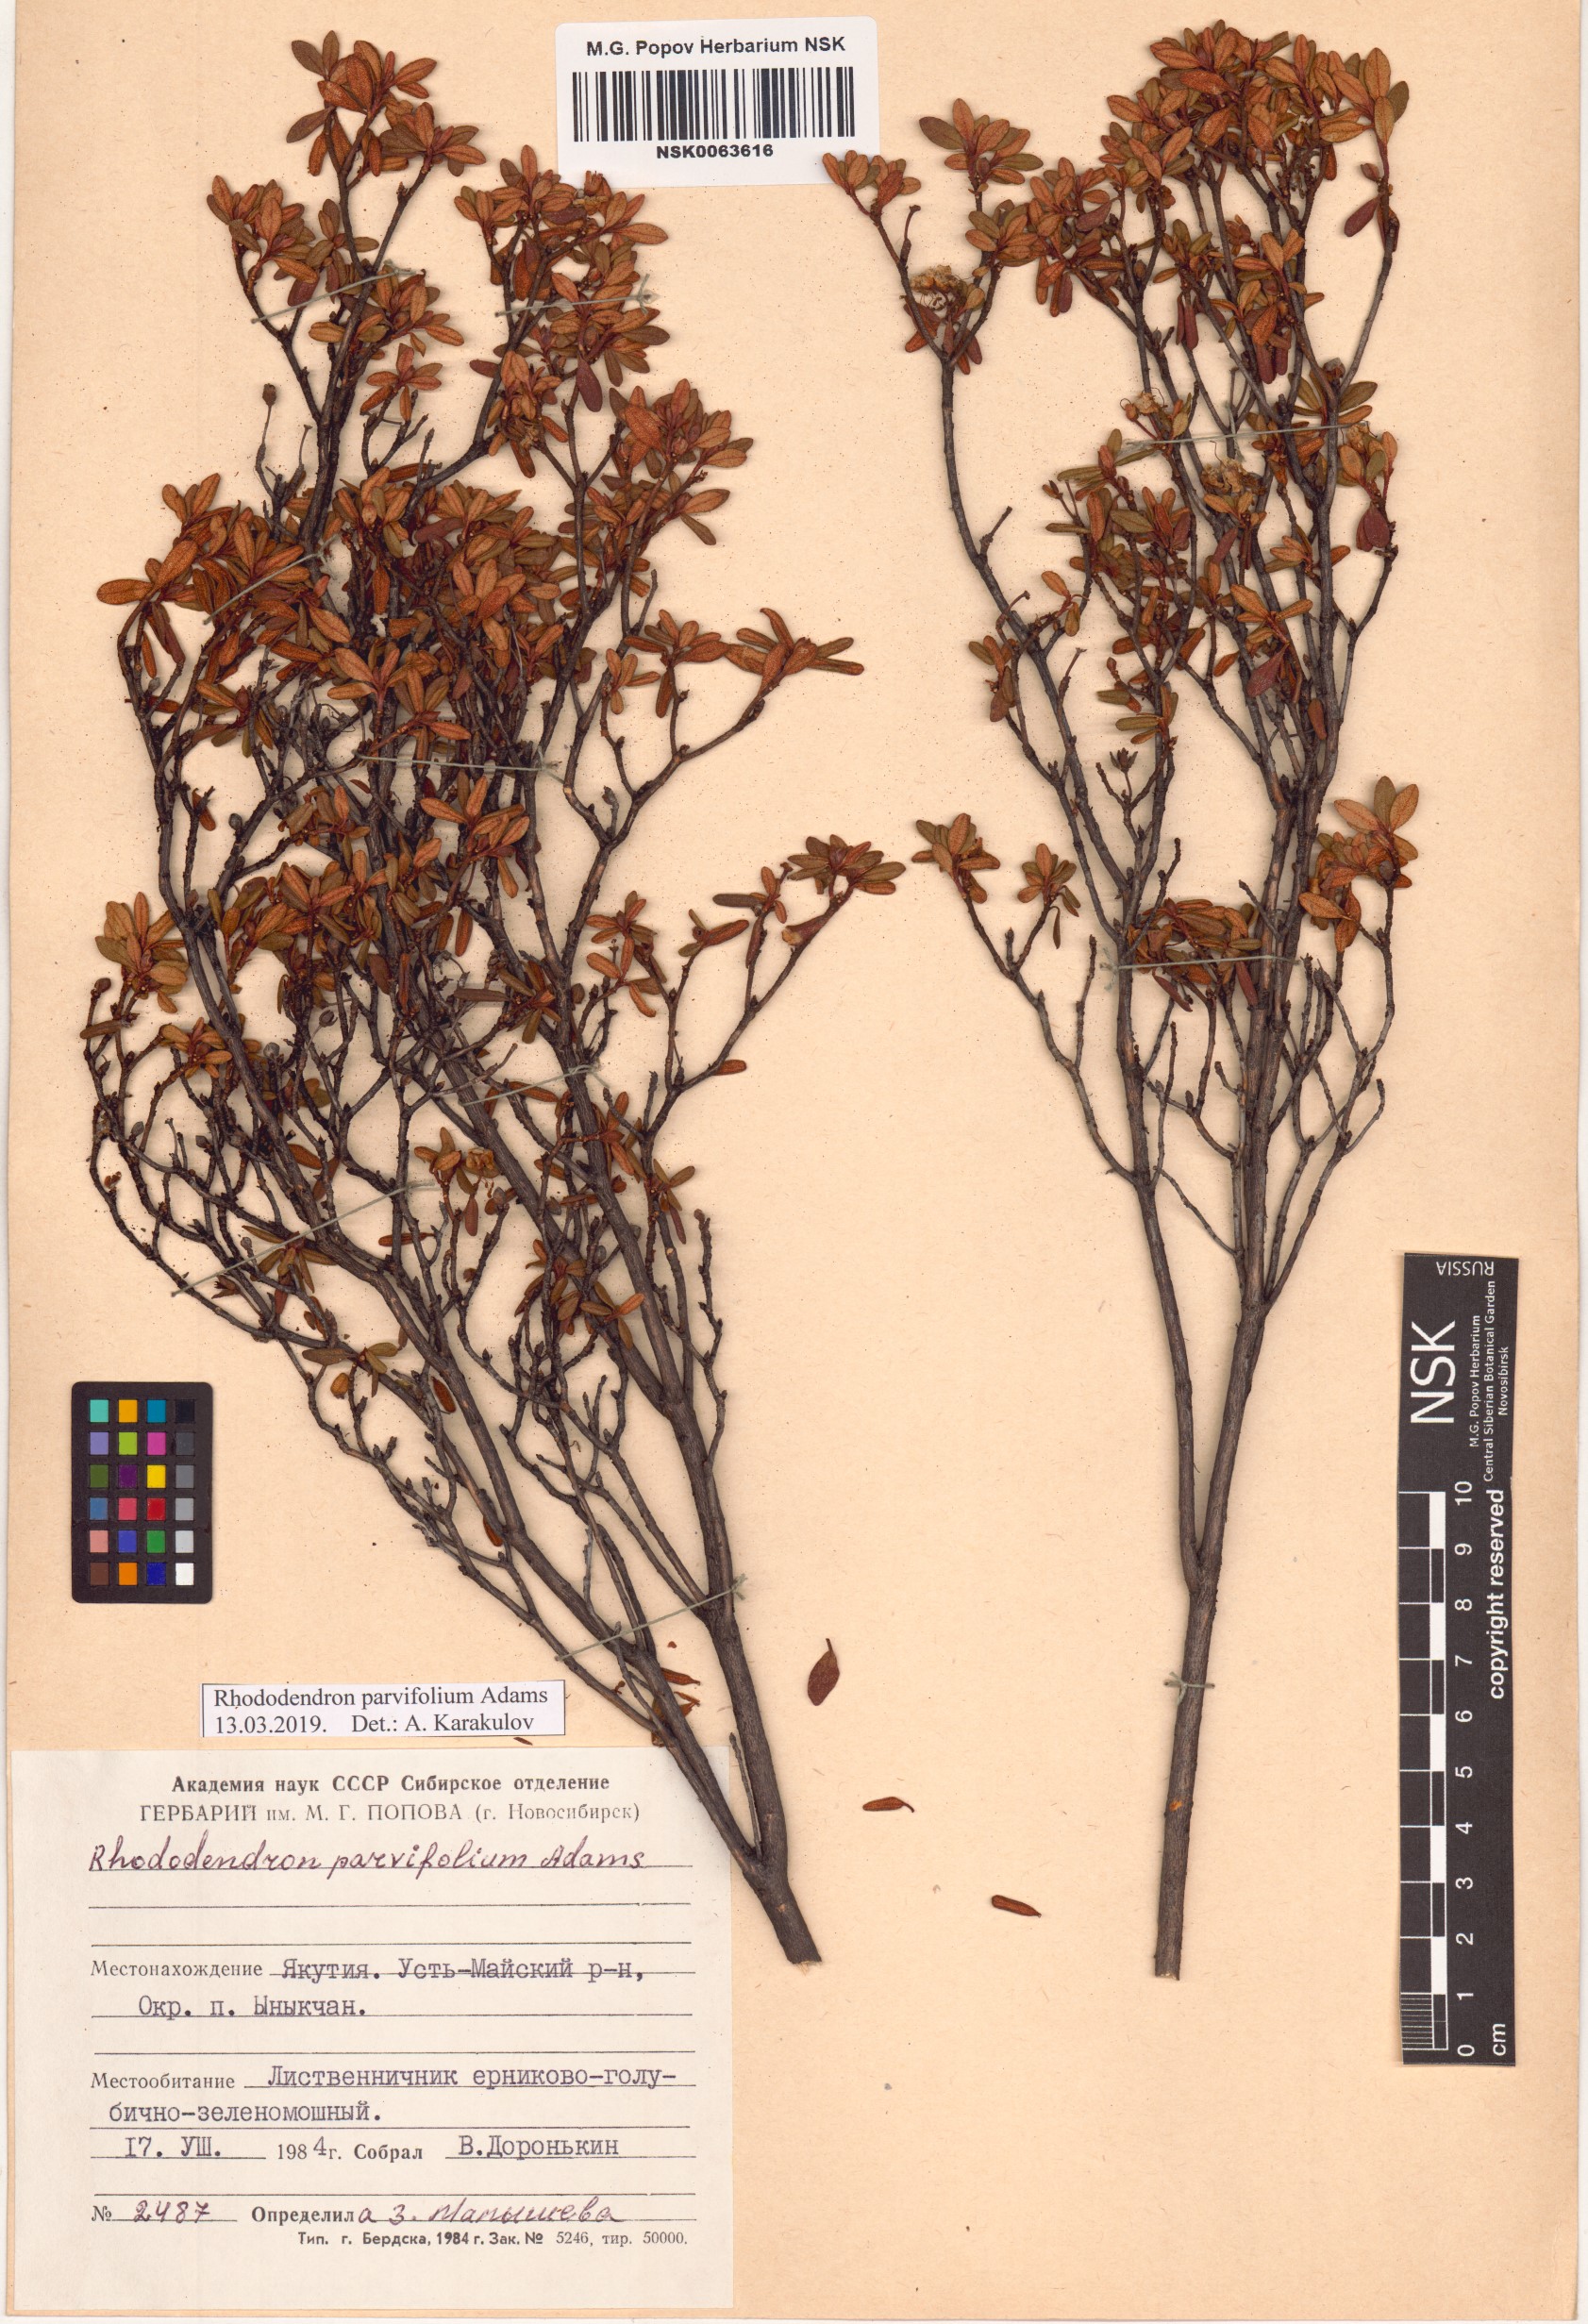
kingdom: Plantae
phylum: Tracheophyta
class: Magnoliopsida
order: Ericales
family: Ericaceae
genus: Rhododendron
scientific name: Rhododendron parvifolium
